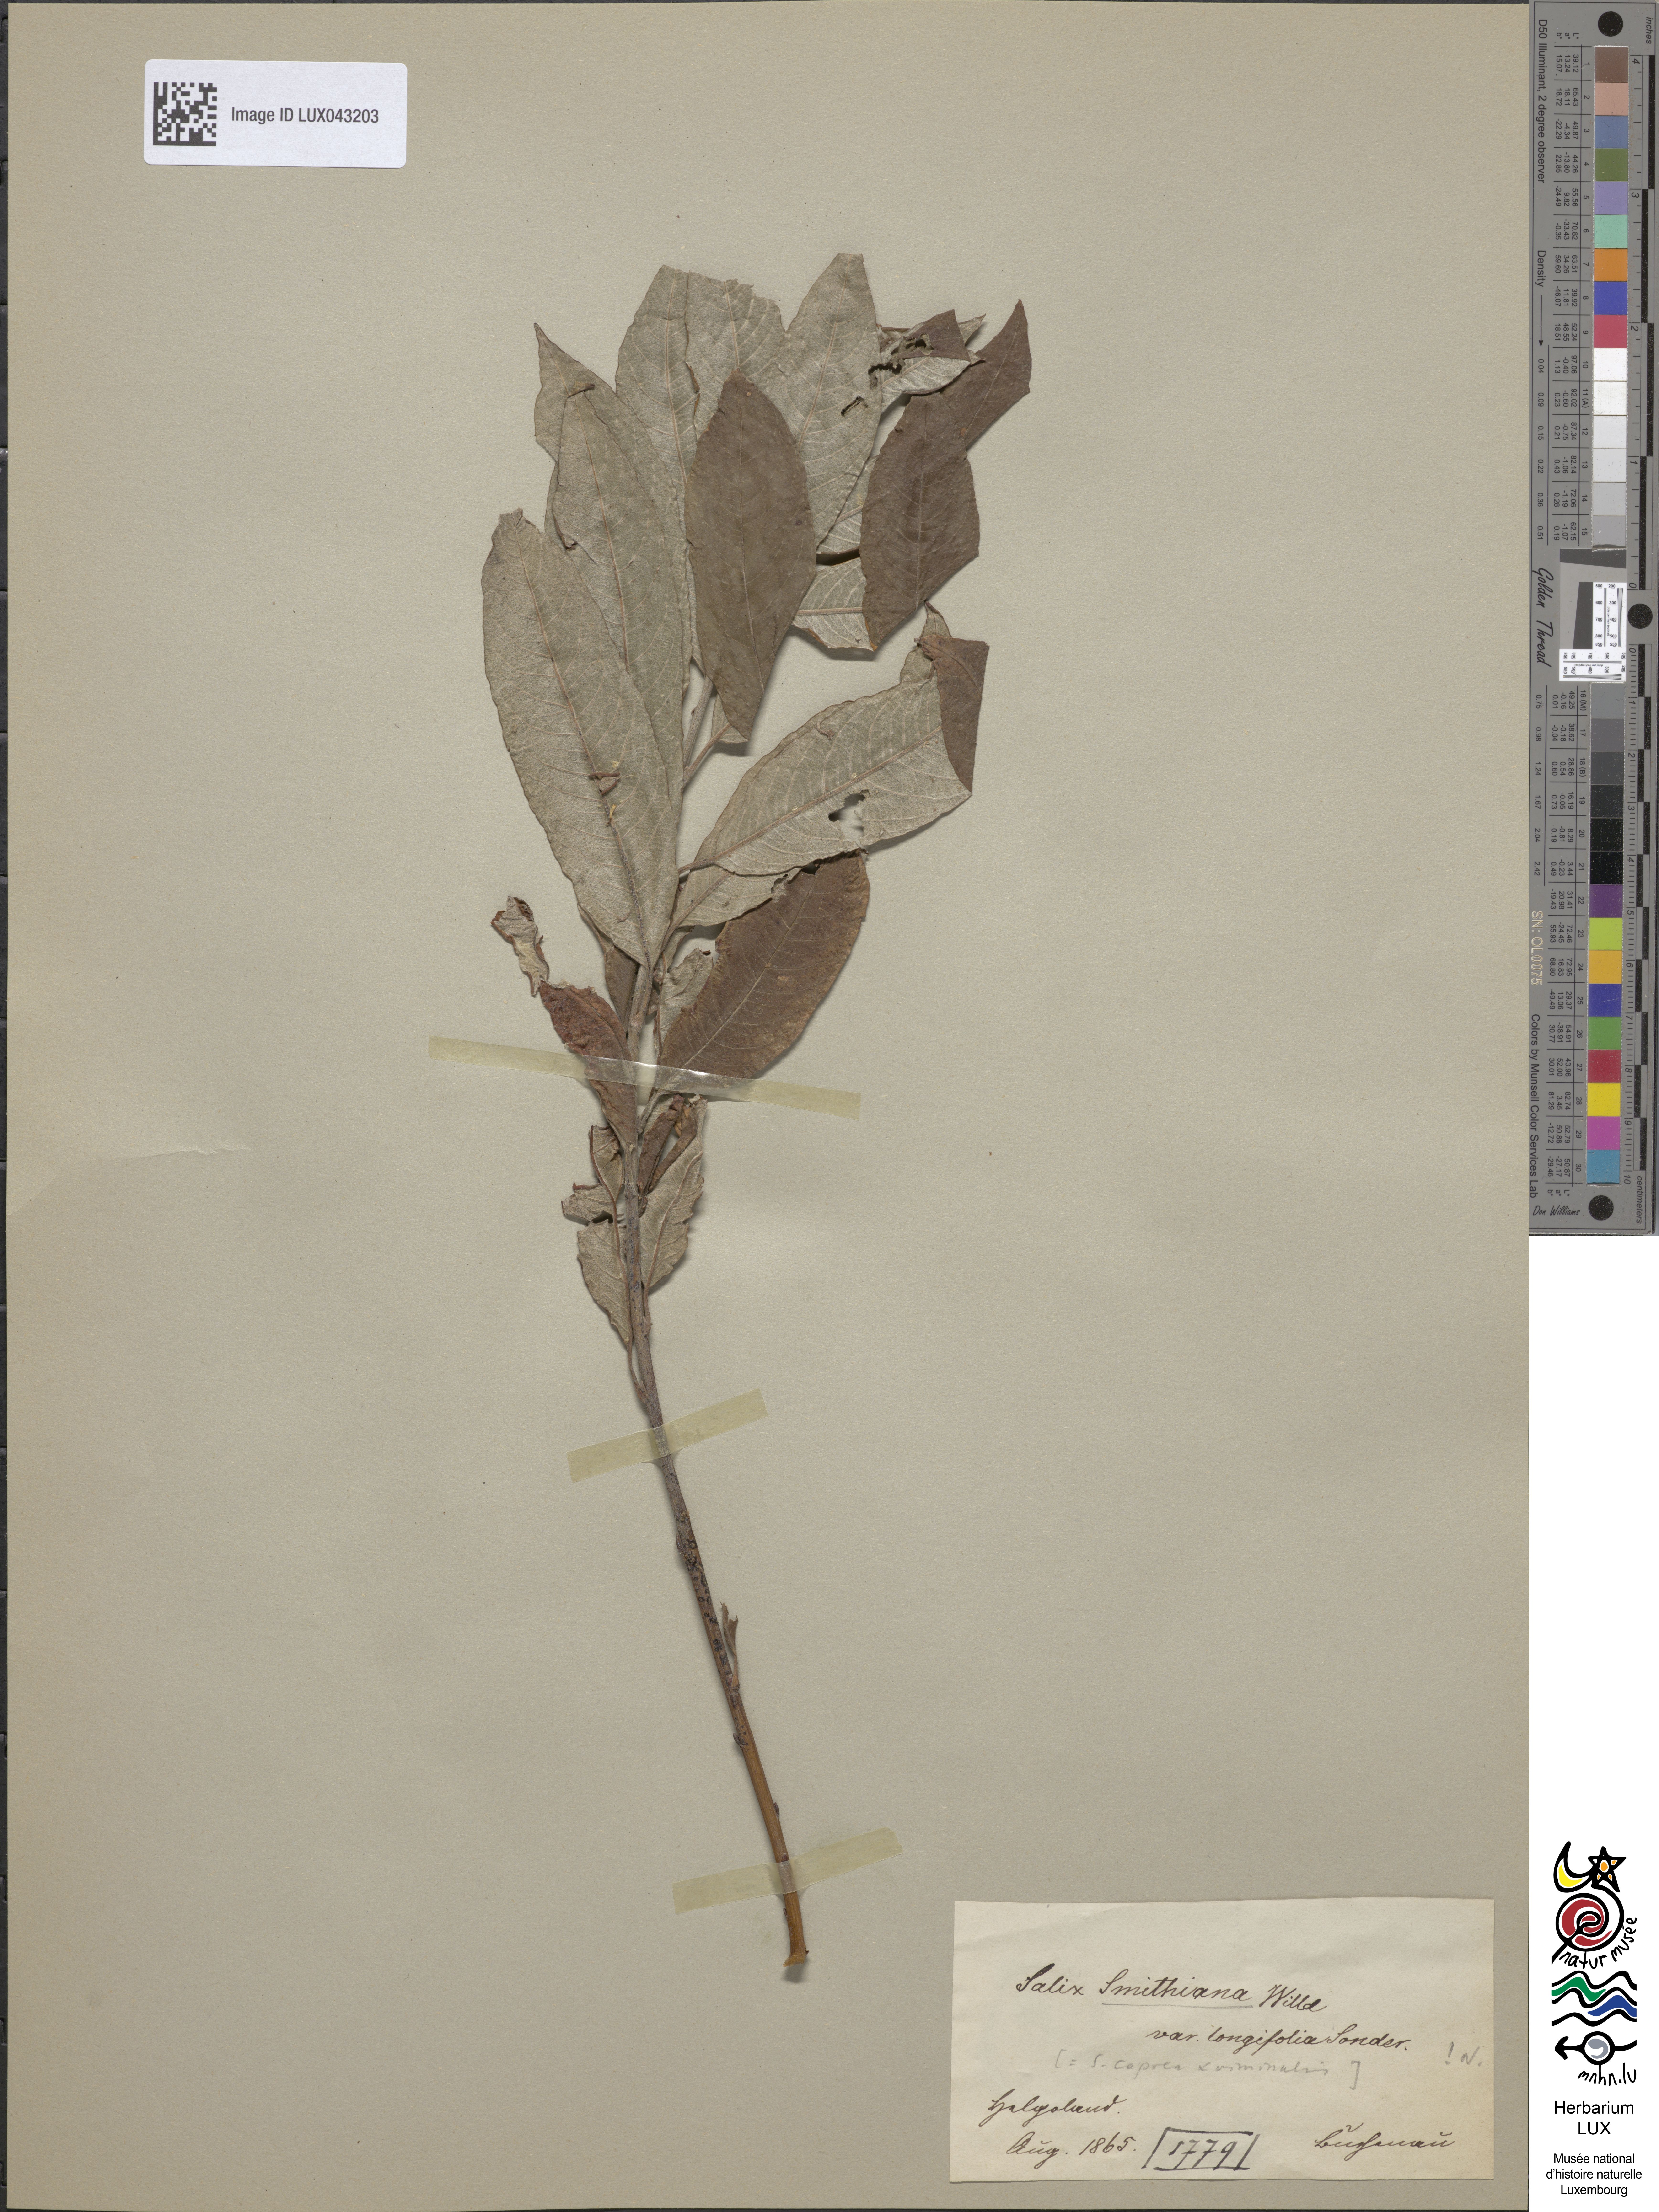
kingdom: Plantae
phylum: Tracheophyta
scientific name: Tracheophyta
